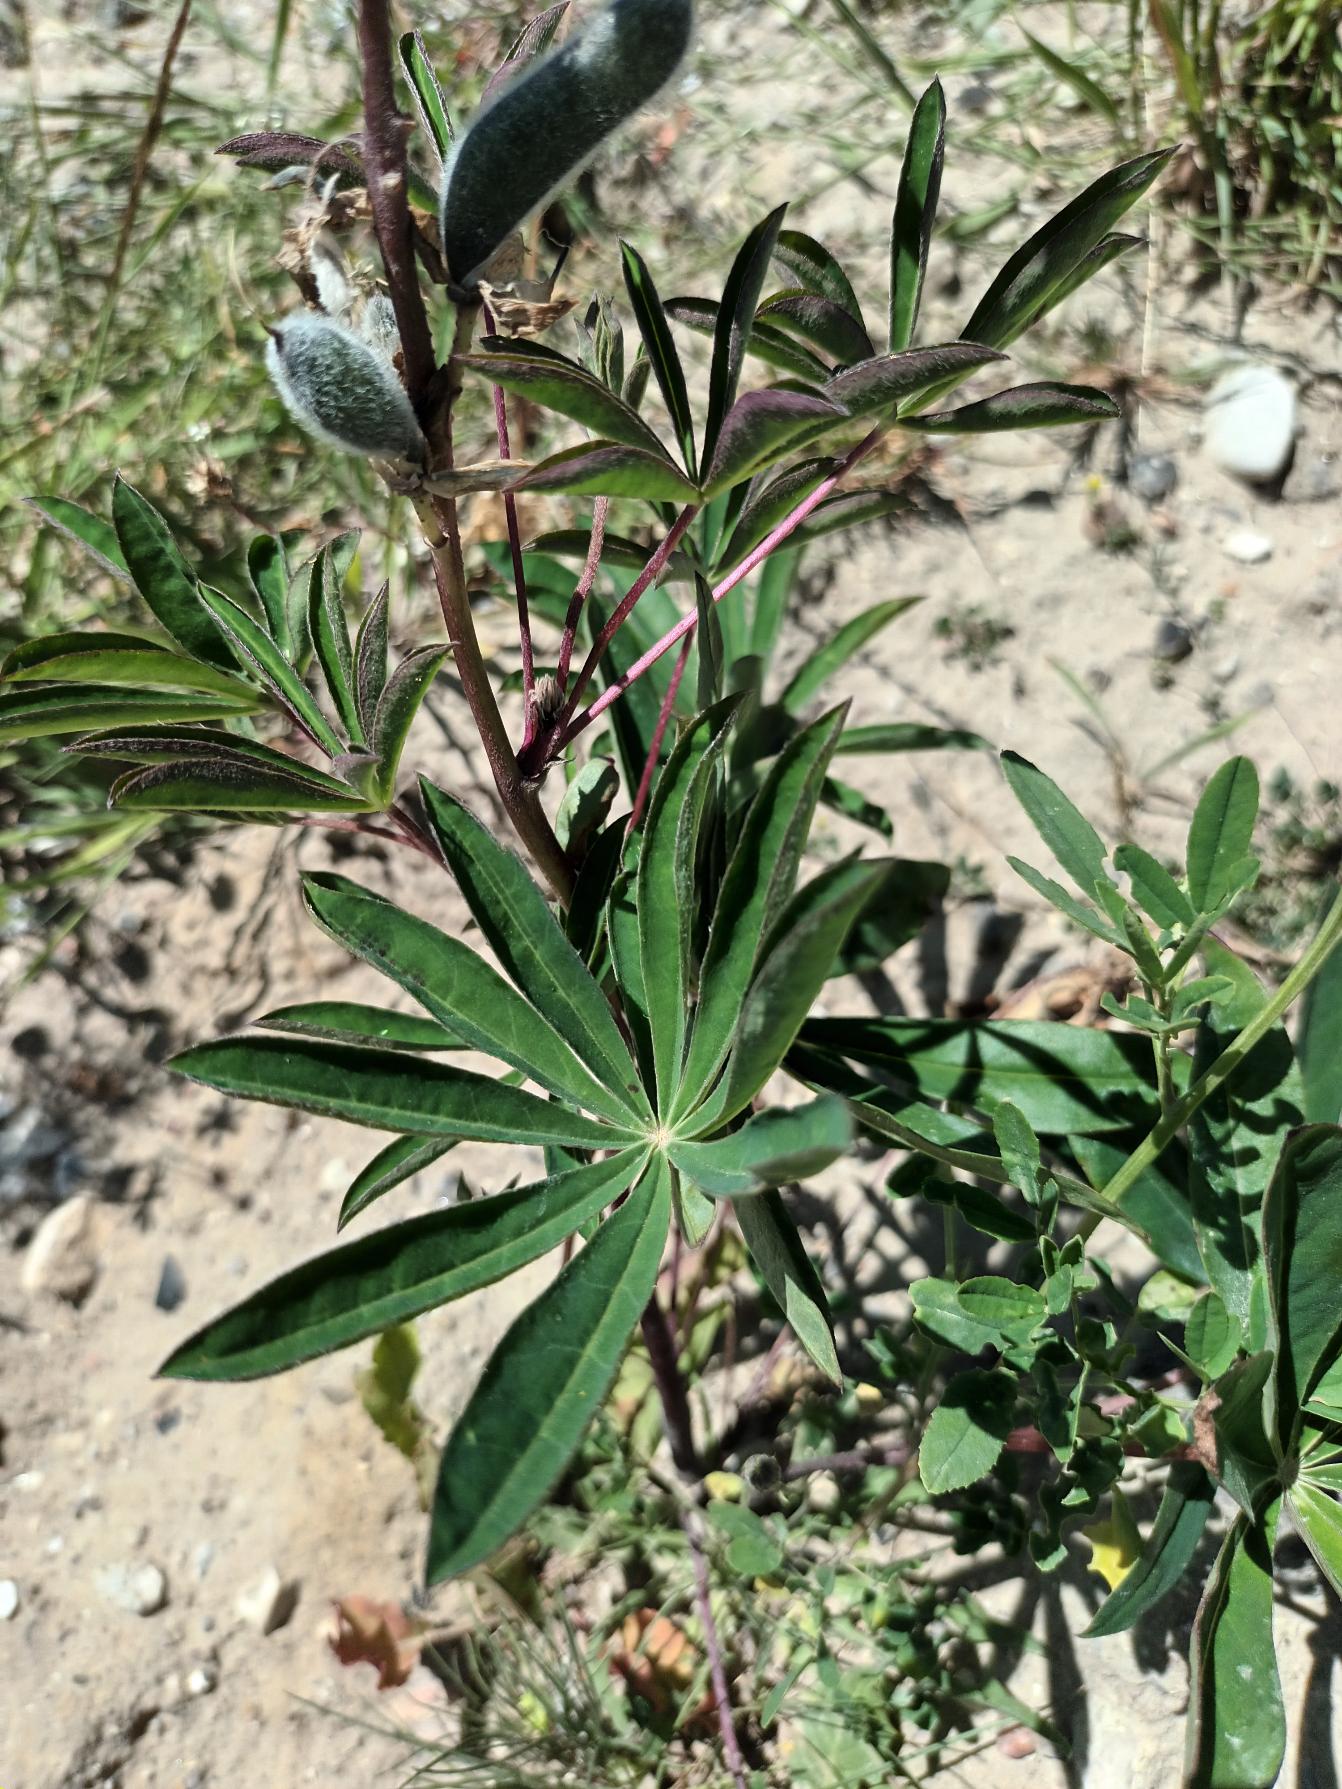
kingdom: Plantae
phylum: Tracheophyta
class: Magnoliopsida
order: Fabales
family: Fabaceae
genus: Lupinus
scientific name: Lupinus polyphyllus
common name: Mangebladet lupin
